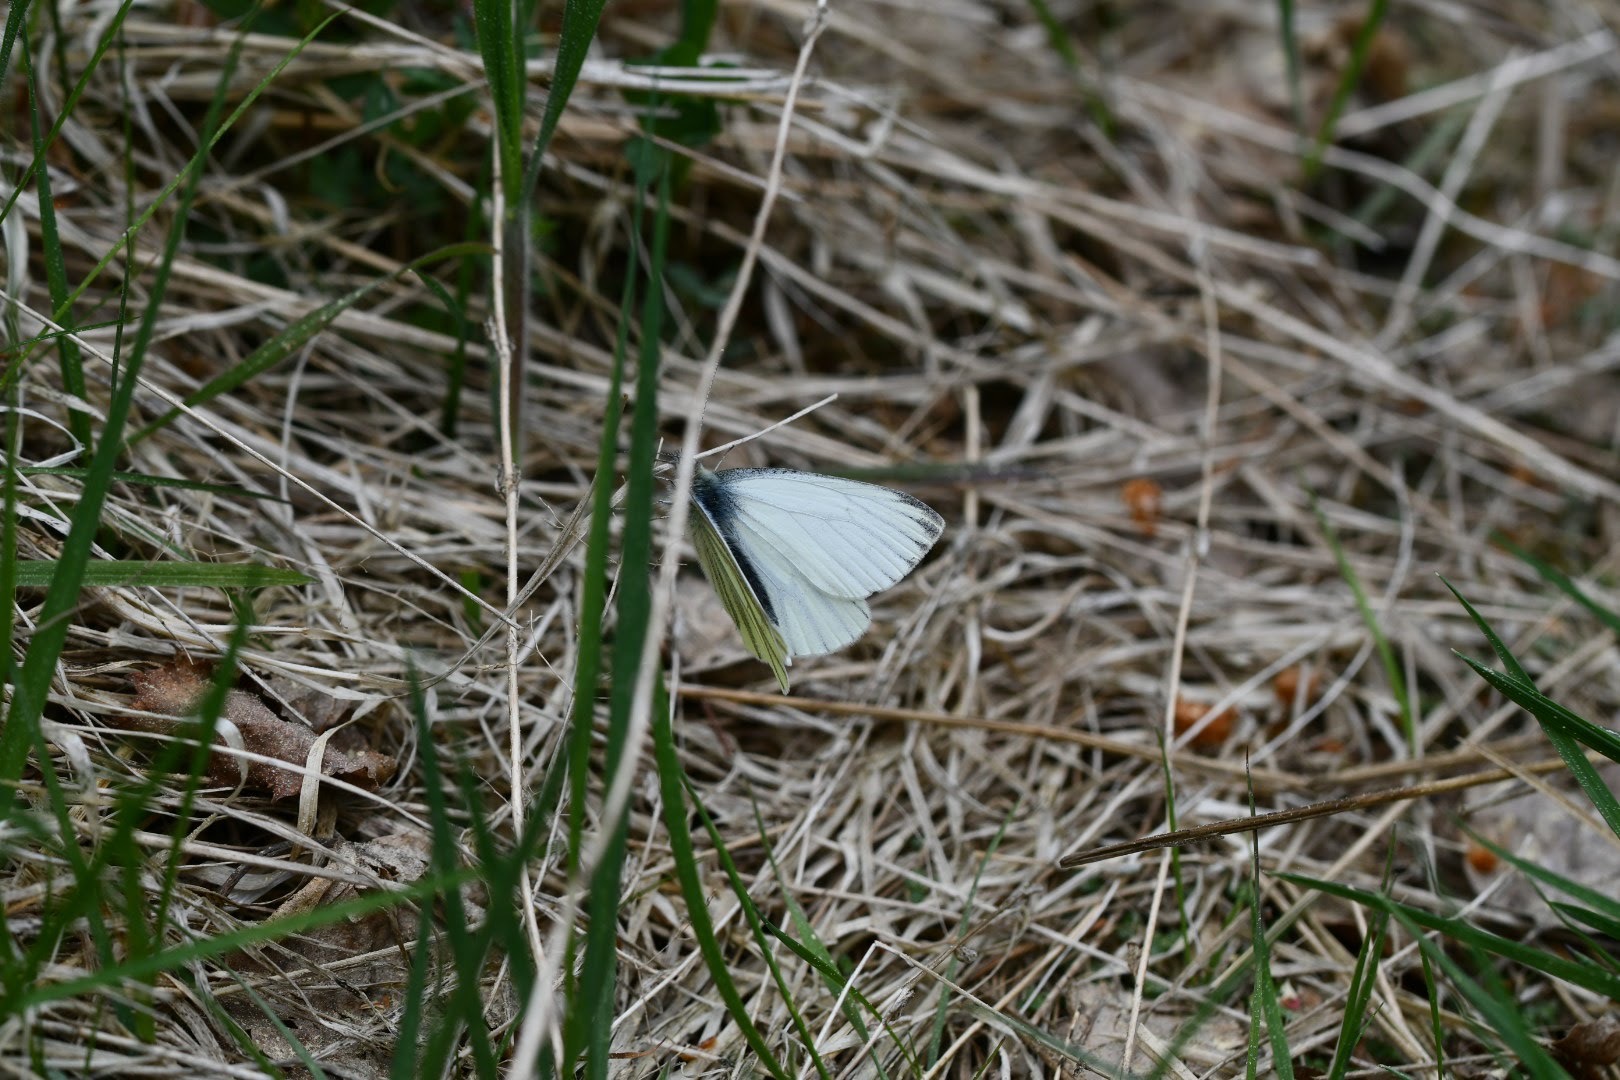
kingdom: Animalia
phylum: Arthropoda
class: Insecta
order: Lepidoptera
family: Pieridae
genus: Pieris
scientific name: Pieris napi
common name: Grønåret kålsommerfugl
